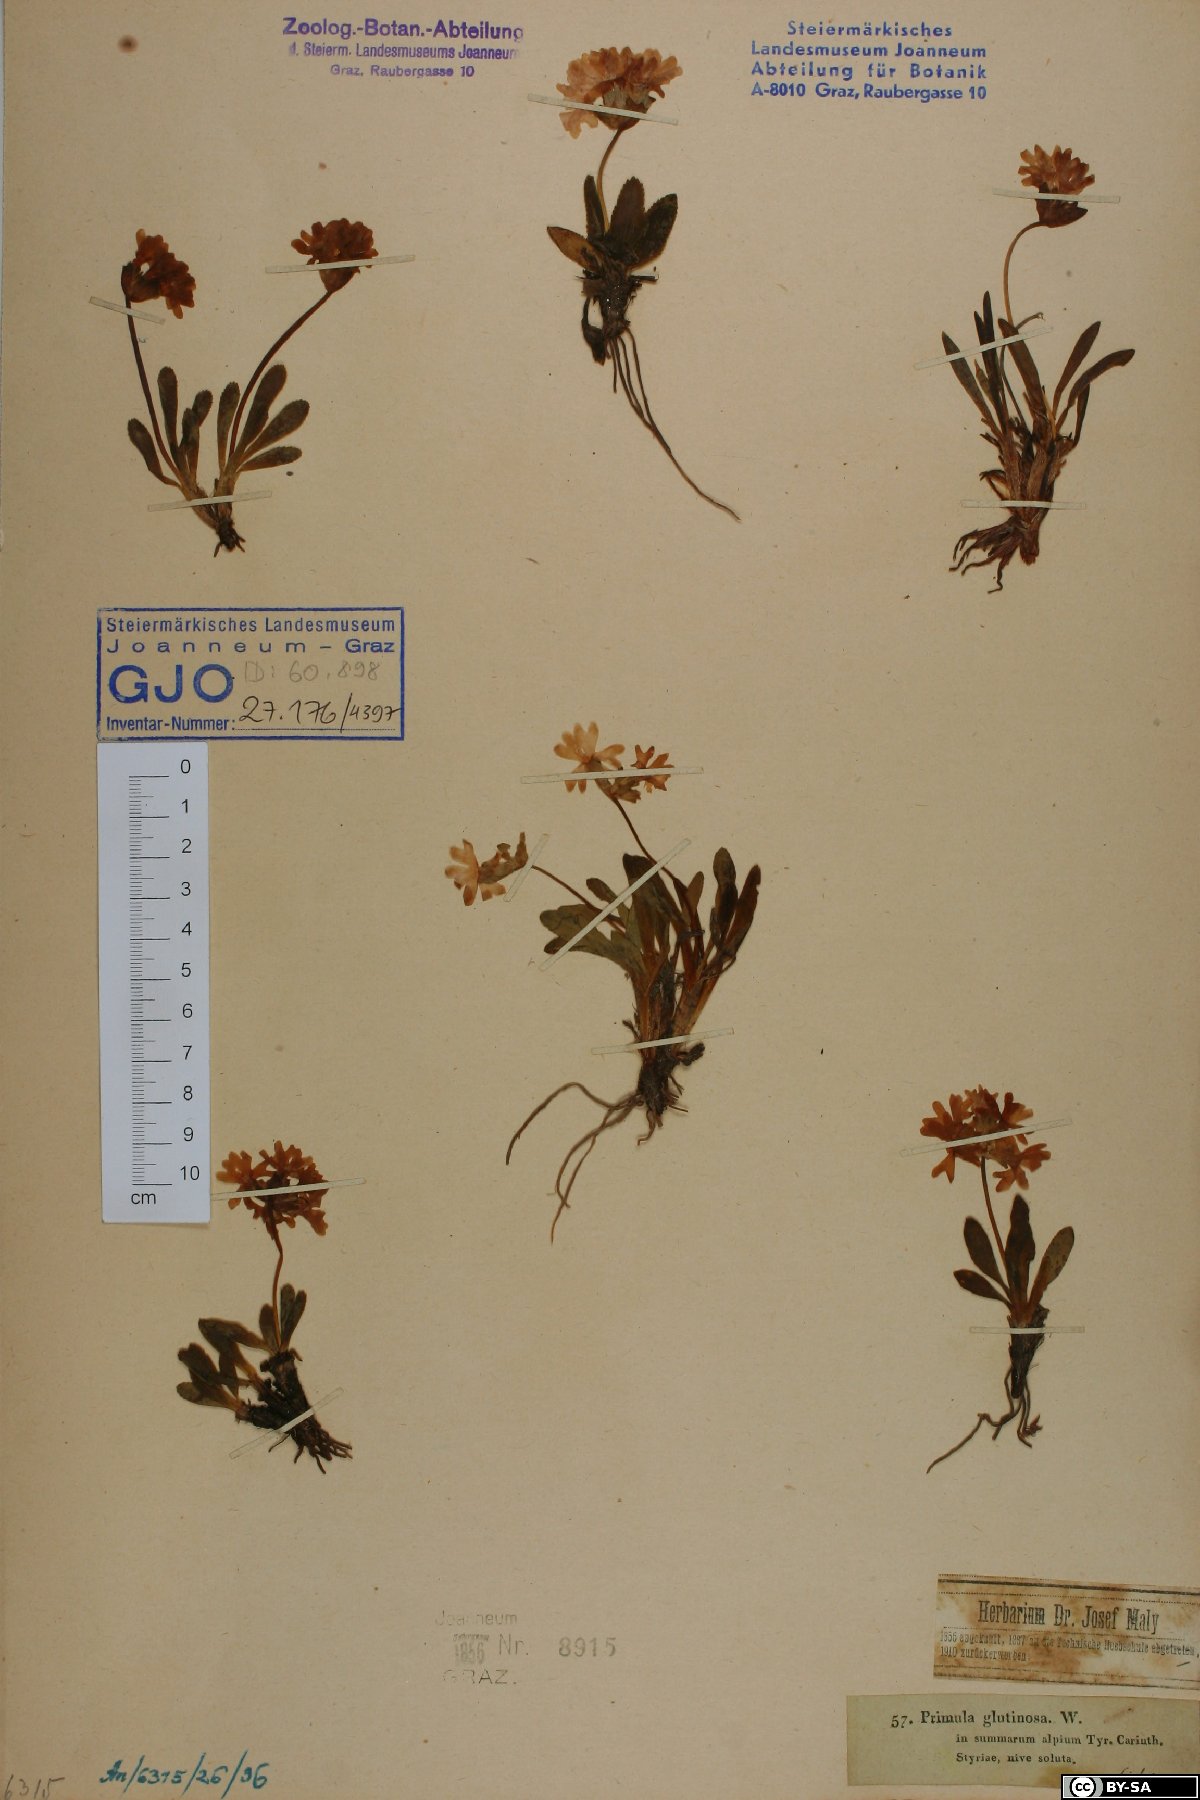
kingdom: Plantae
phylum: Tracheophyta
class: Magnoliopsida
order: Ericales
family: Primulaceae
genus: Primula
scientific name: Primula glutinosa
